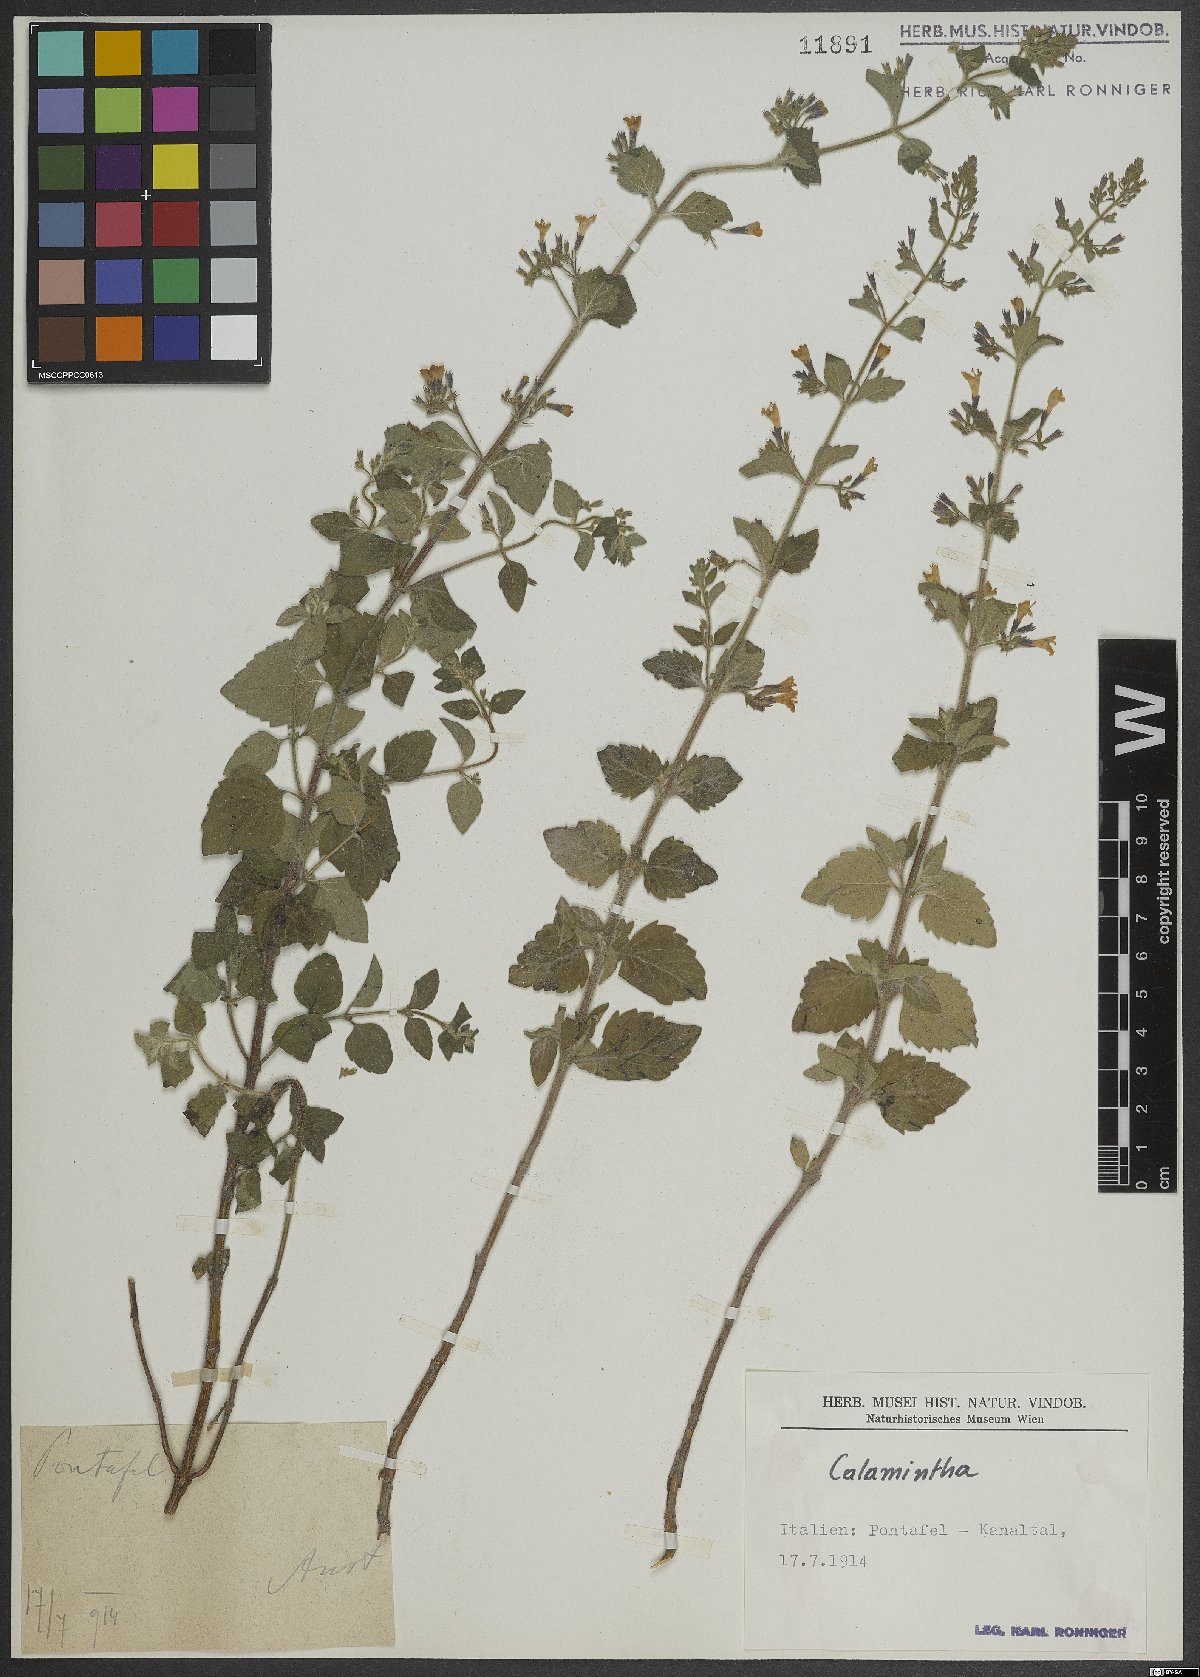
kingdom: Plantae
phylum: Tracheophyta
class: Magnoliopsida
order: Lamiales
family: Lamiaceae
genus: Calamintha
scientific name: Calamintha
